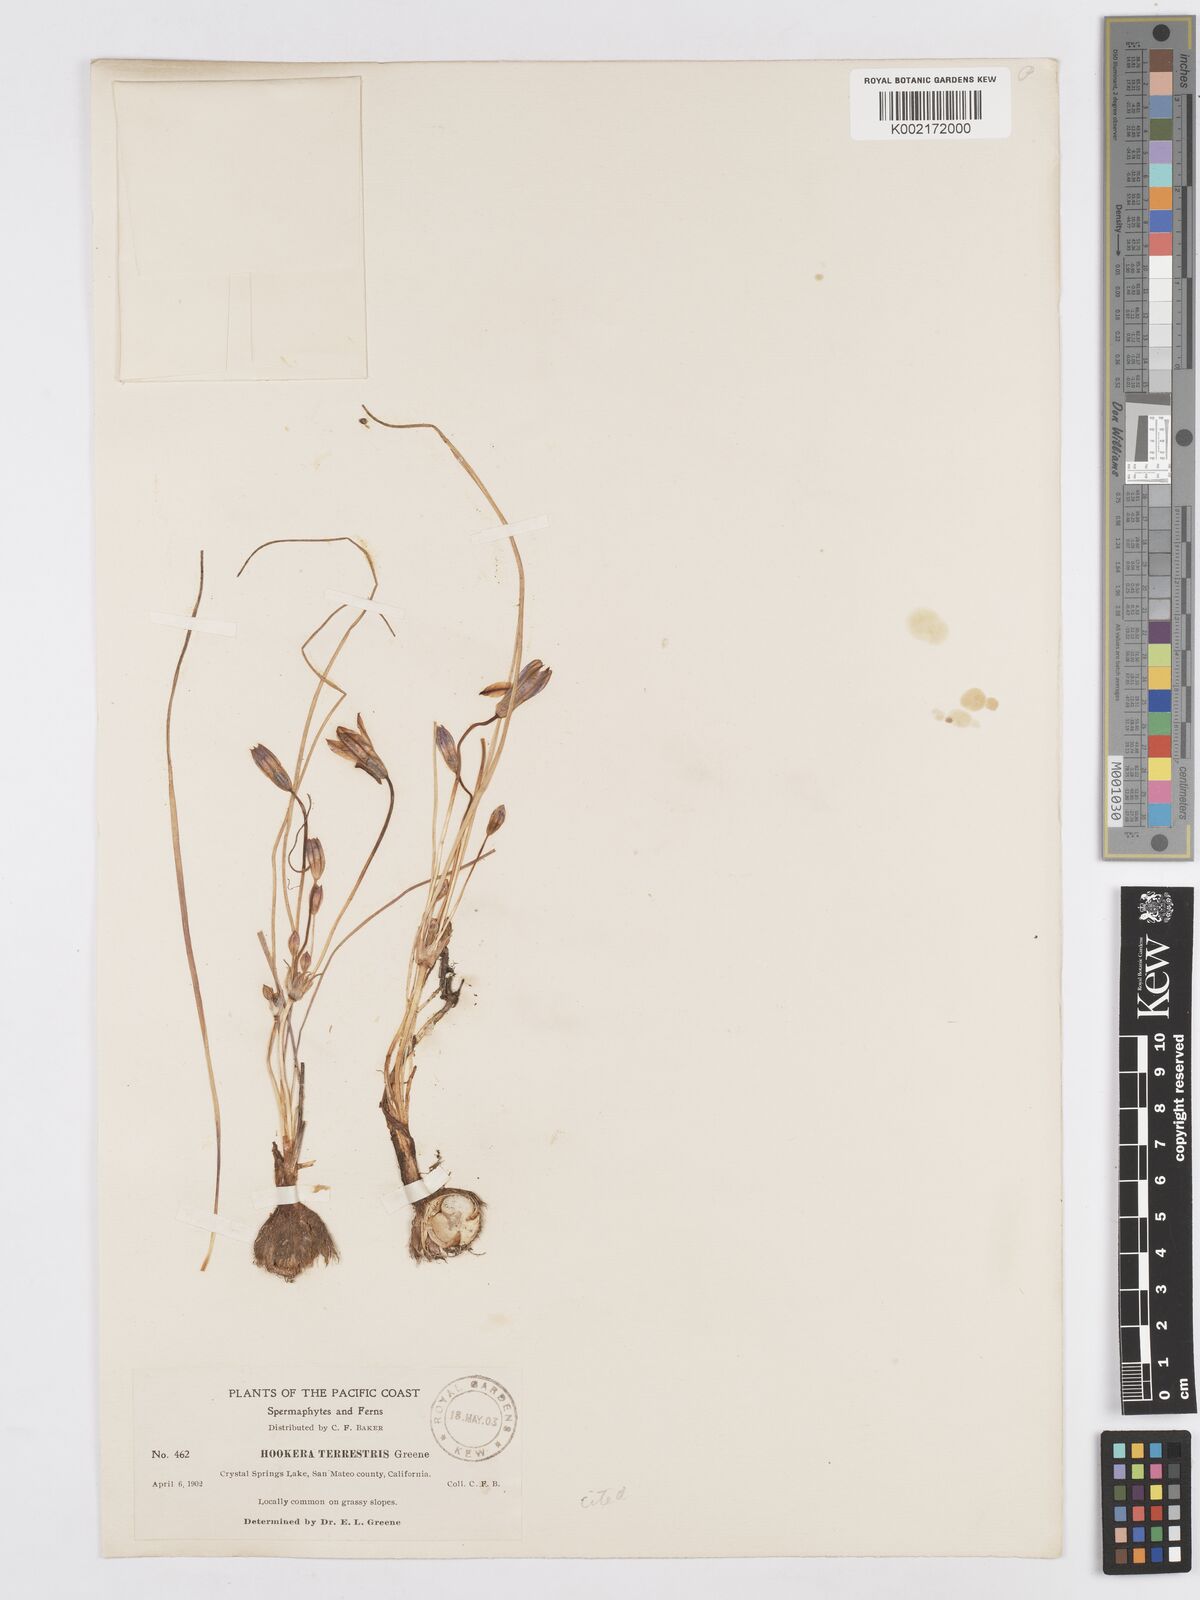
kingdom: Plantae
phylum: Tracheophyta
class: Liliopsida
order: Asparagales
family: Asparagaceae
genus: Brodiaea
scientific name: Brodiaea terrestris
